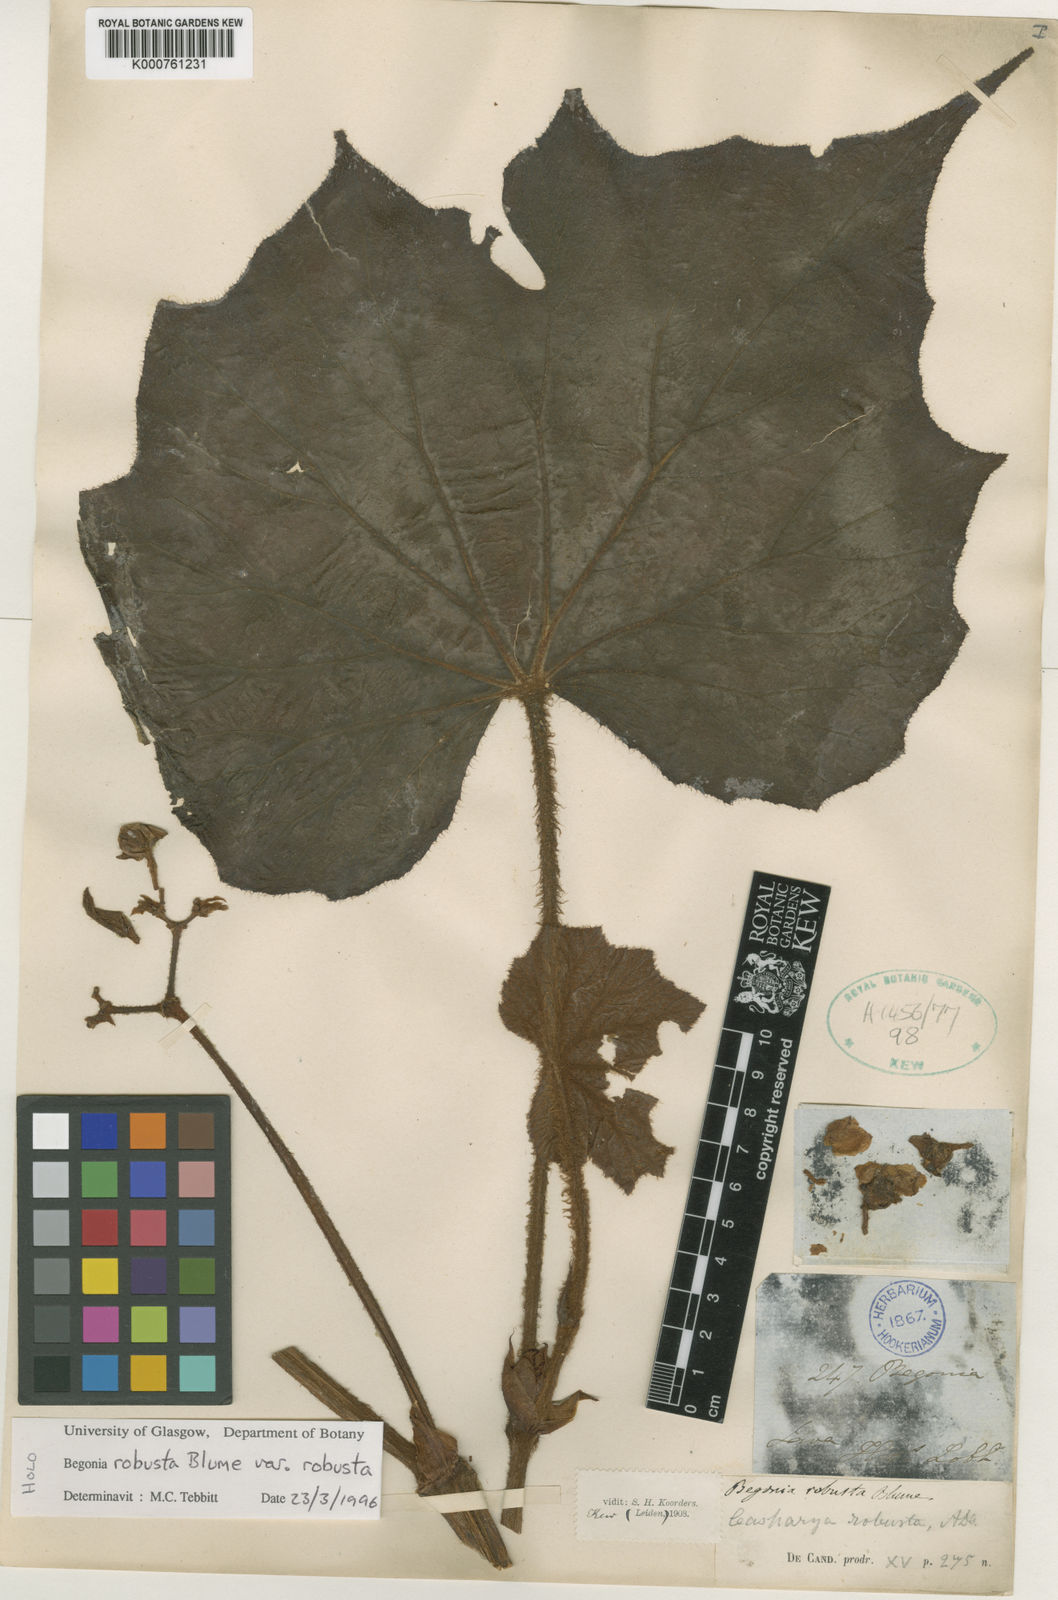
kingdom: Plantae
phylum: Tracheophyta
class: Magnoliopsida
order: Cucurbitales
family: Begoniaceae
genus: Begonia
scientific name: Begonia robusta
